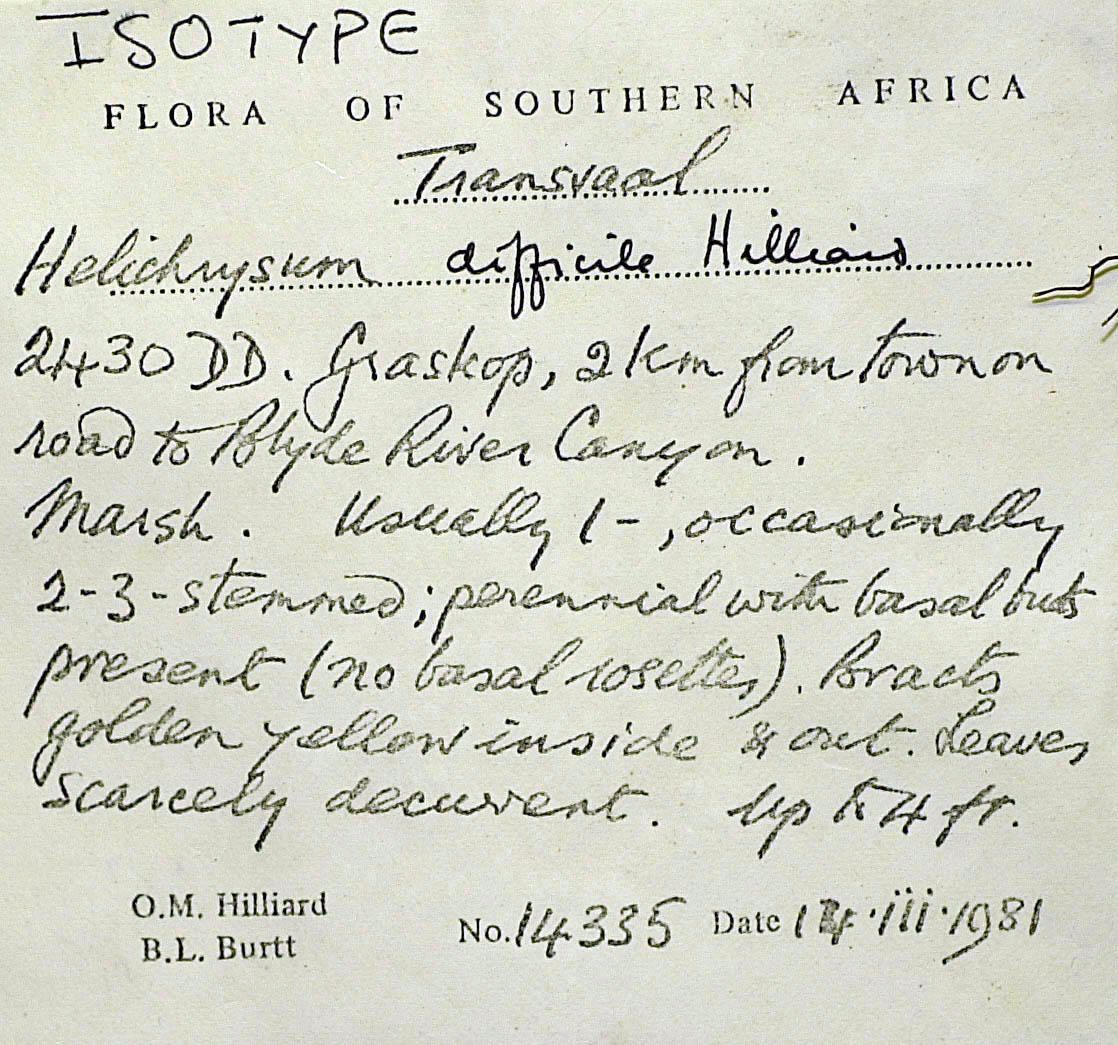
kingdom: Plantae
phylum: Tracheophyta
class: Magnoliopsida
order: Asterales
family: Asteraceae
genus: Helichrysum
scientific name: Helichrysum difficile
